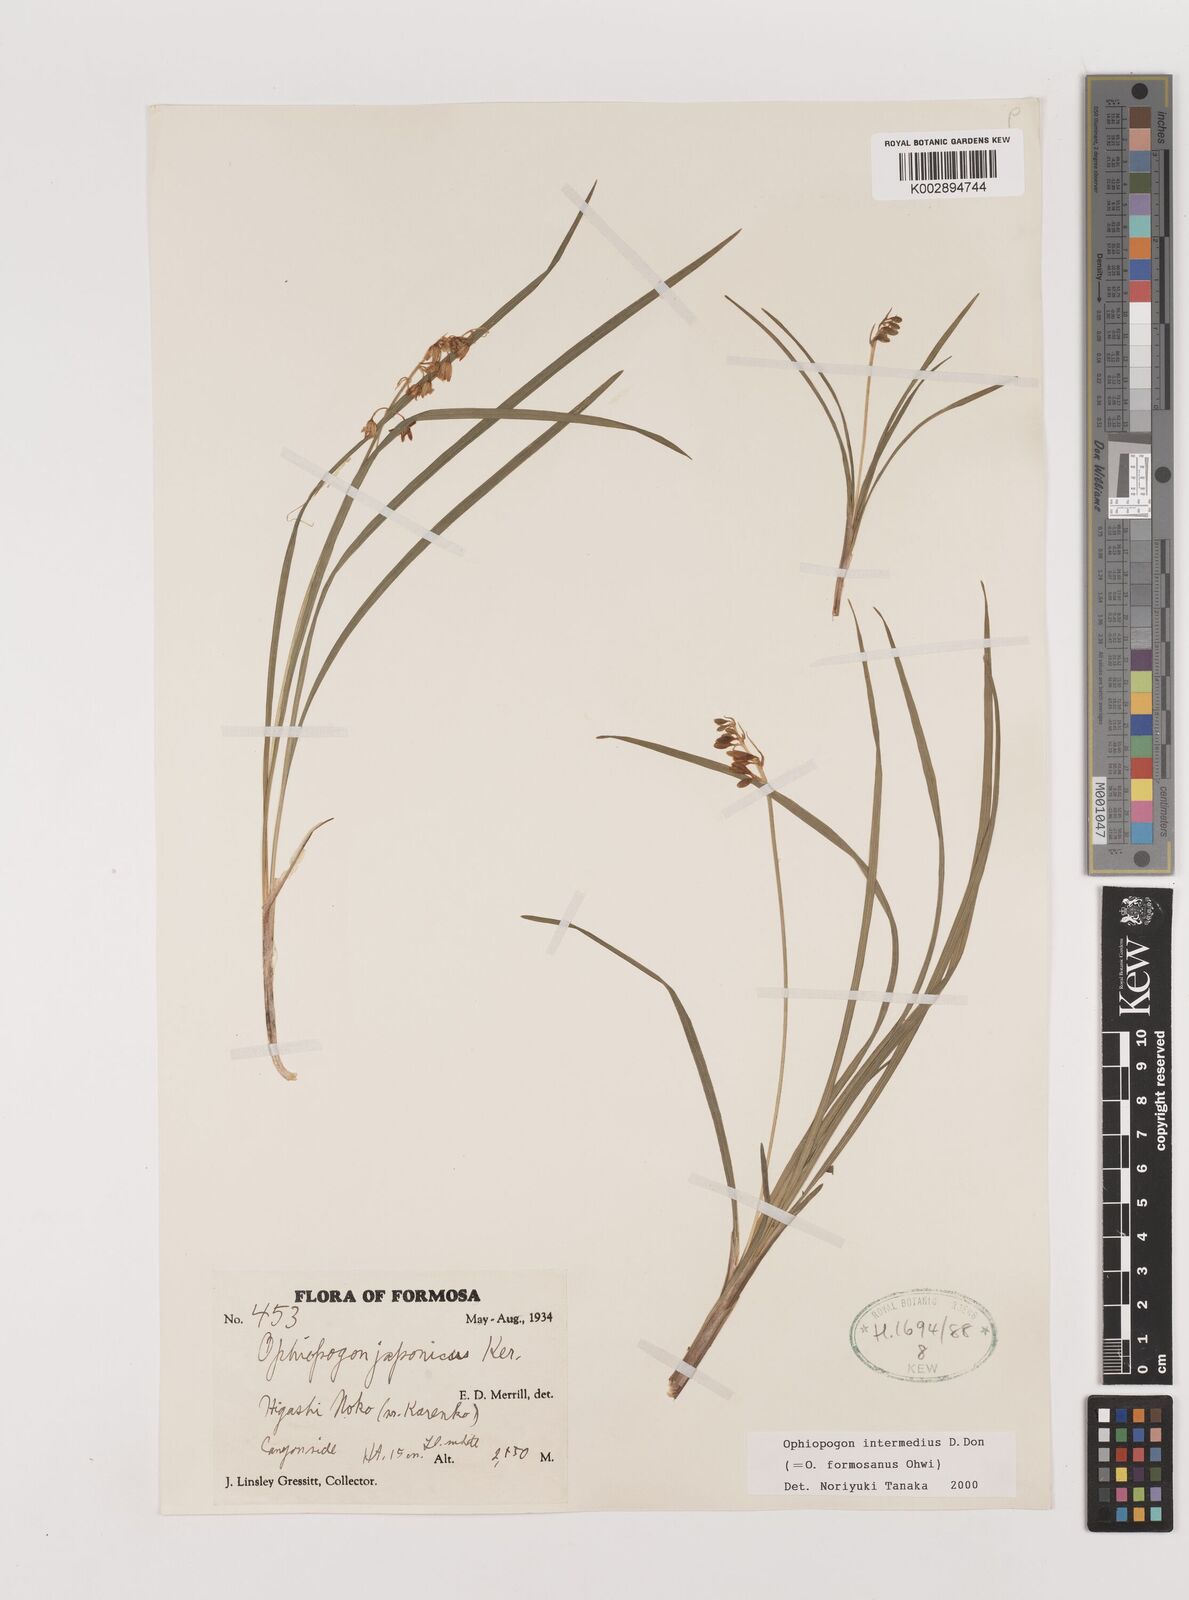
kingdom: Plantae
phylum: Tracheophyta
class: Liliopsida
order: Asparagales
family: Asparagaceae
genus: Ophiopogon
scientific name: Ophiopogon intermedius
